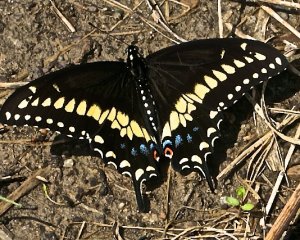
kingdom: Animalia
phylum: Arthropoda
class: Insecta
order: Lepidoptera
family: Papilionidae
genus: Papilio
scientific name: Papilio polyxenes
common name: Black Swallowtail
